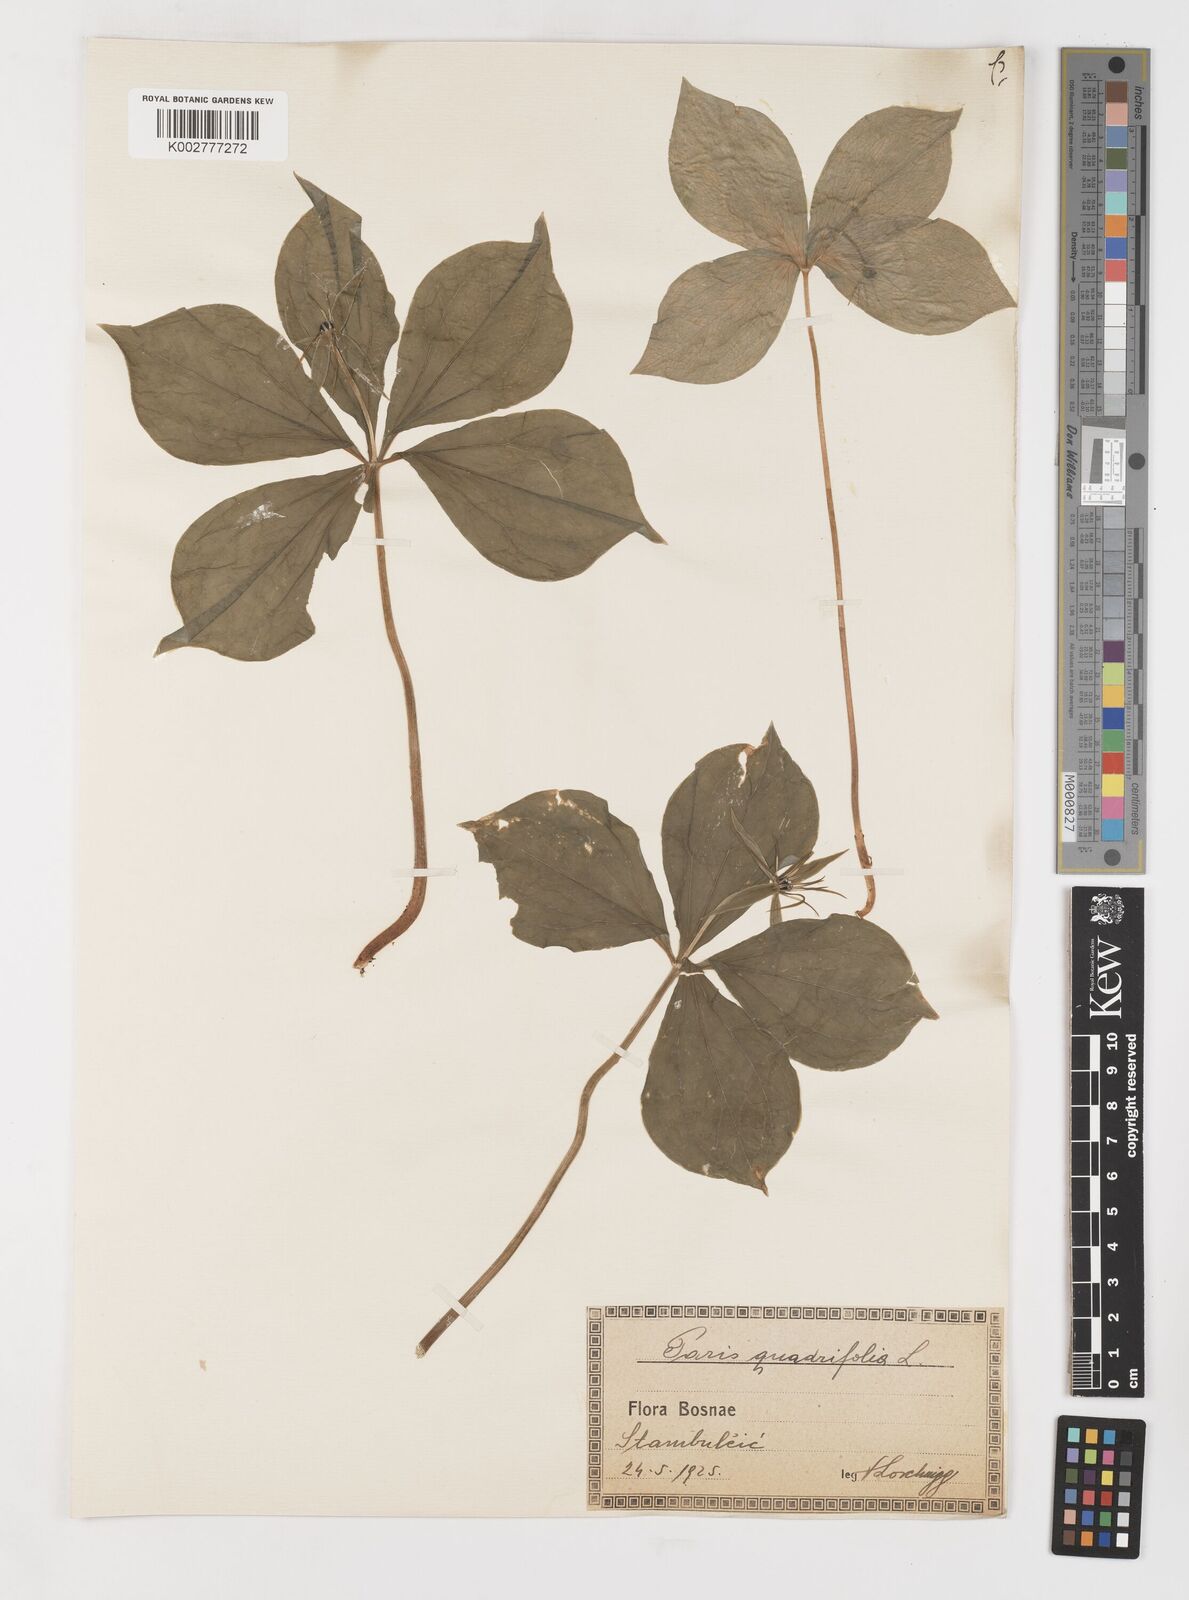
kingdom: Plantae
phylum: Tracheophyta
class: Liliopsida
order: Liliales
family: Melanthiaceae
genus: Paris
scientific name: Paris quadrifolia
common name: Herb-paris
